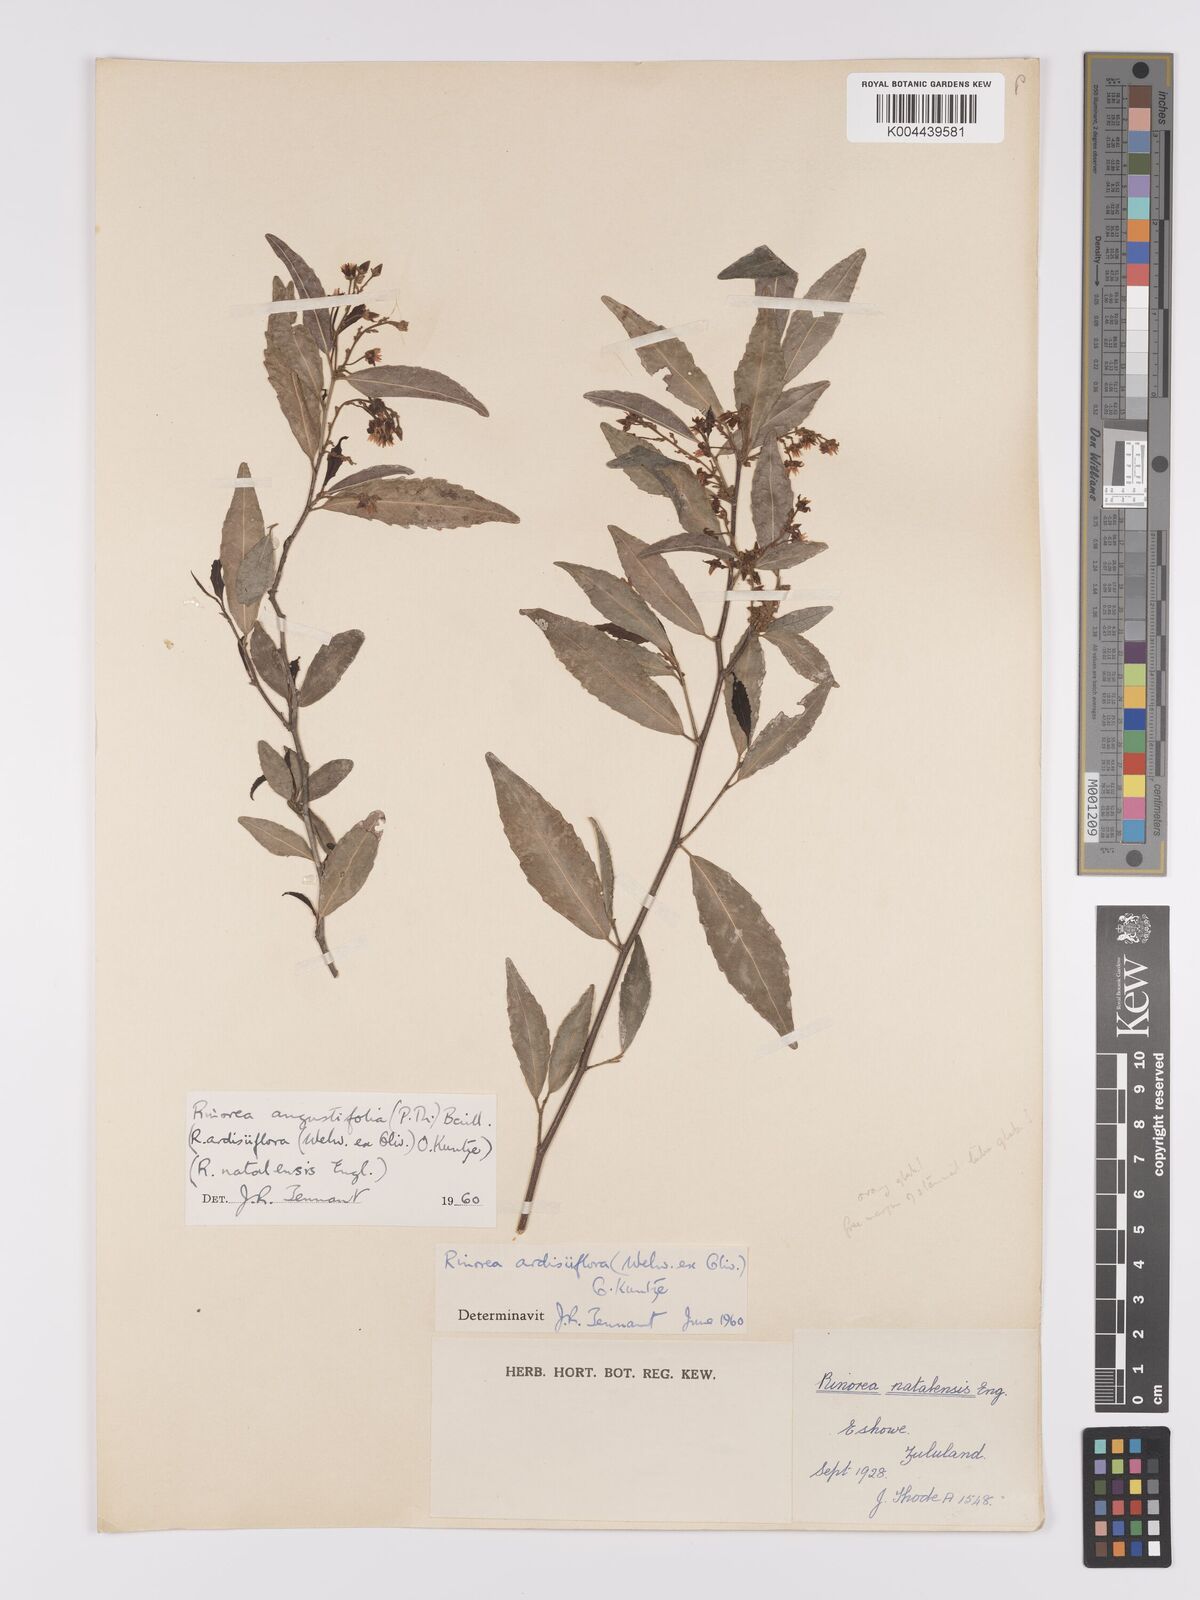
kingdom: Plantae
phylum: Tracheophyta
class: Magnoliopsida
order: Malpighiales
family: Violaceae
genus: Rinorea
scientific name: Rinorea angustifolia
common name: White violet-bush
